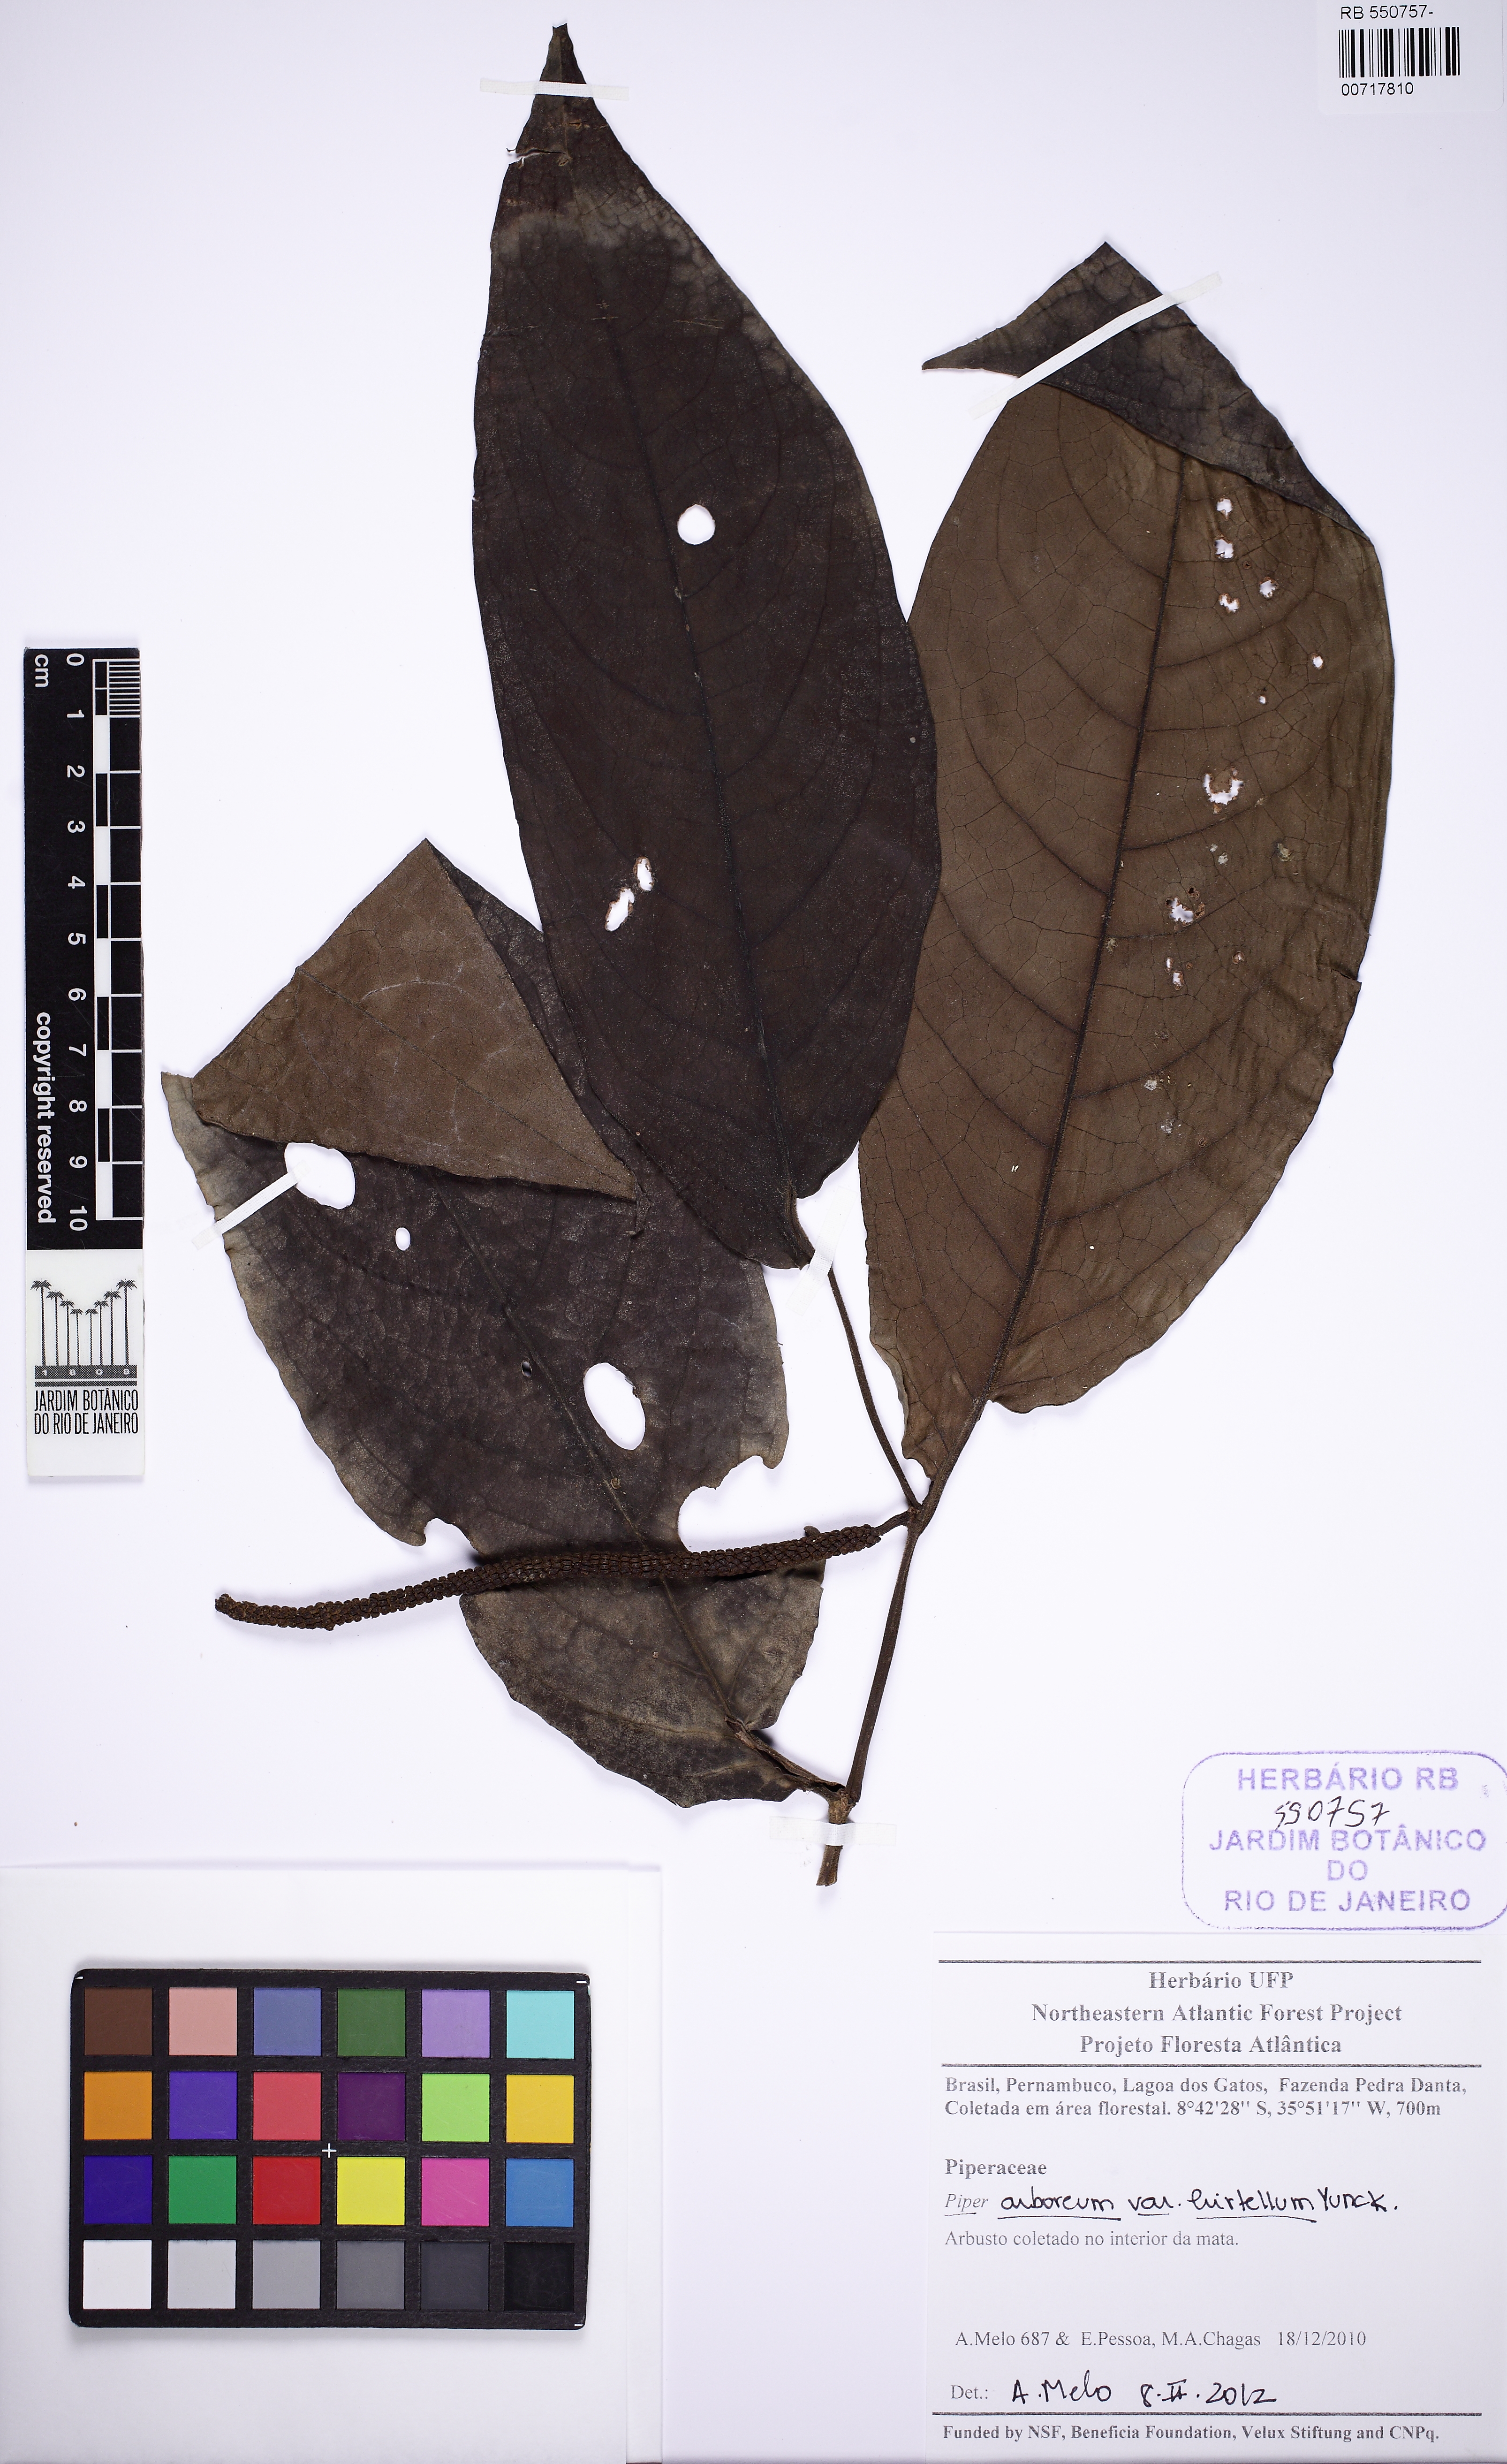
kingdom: Plantae
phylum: Tracheophyta
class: Magnoliopsida
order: Piperales
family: Piperaceae
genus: Piper
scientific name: Piper arboreum
